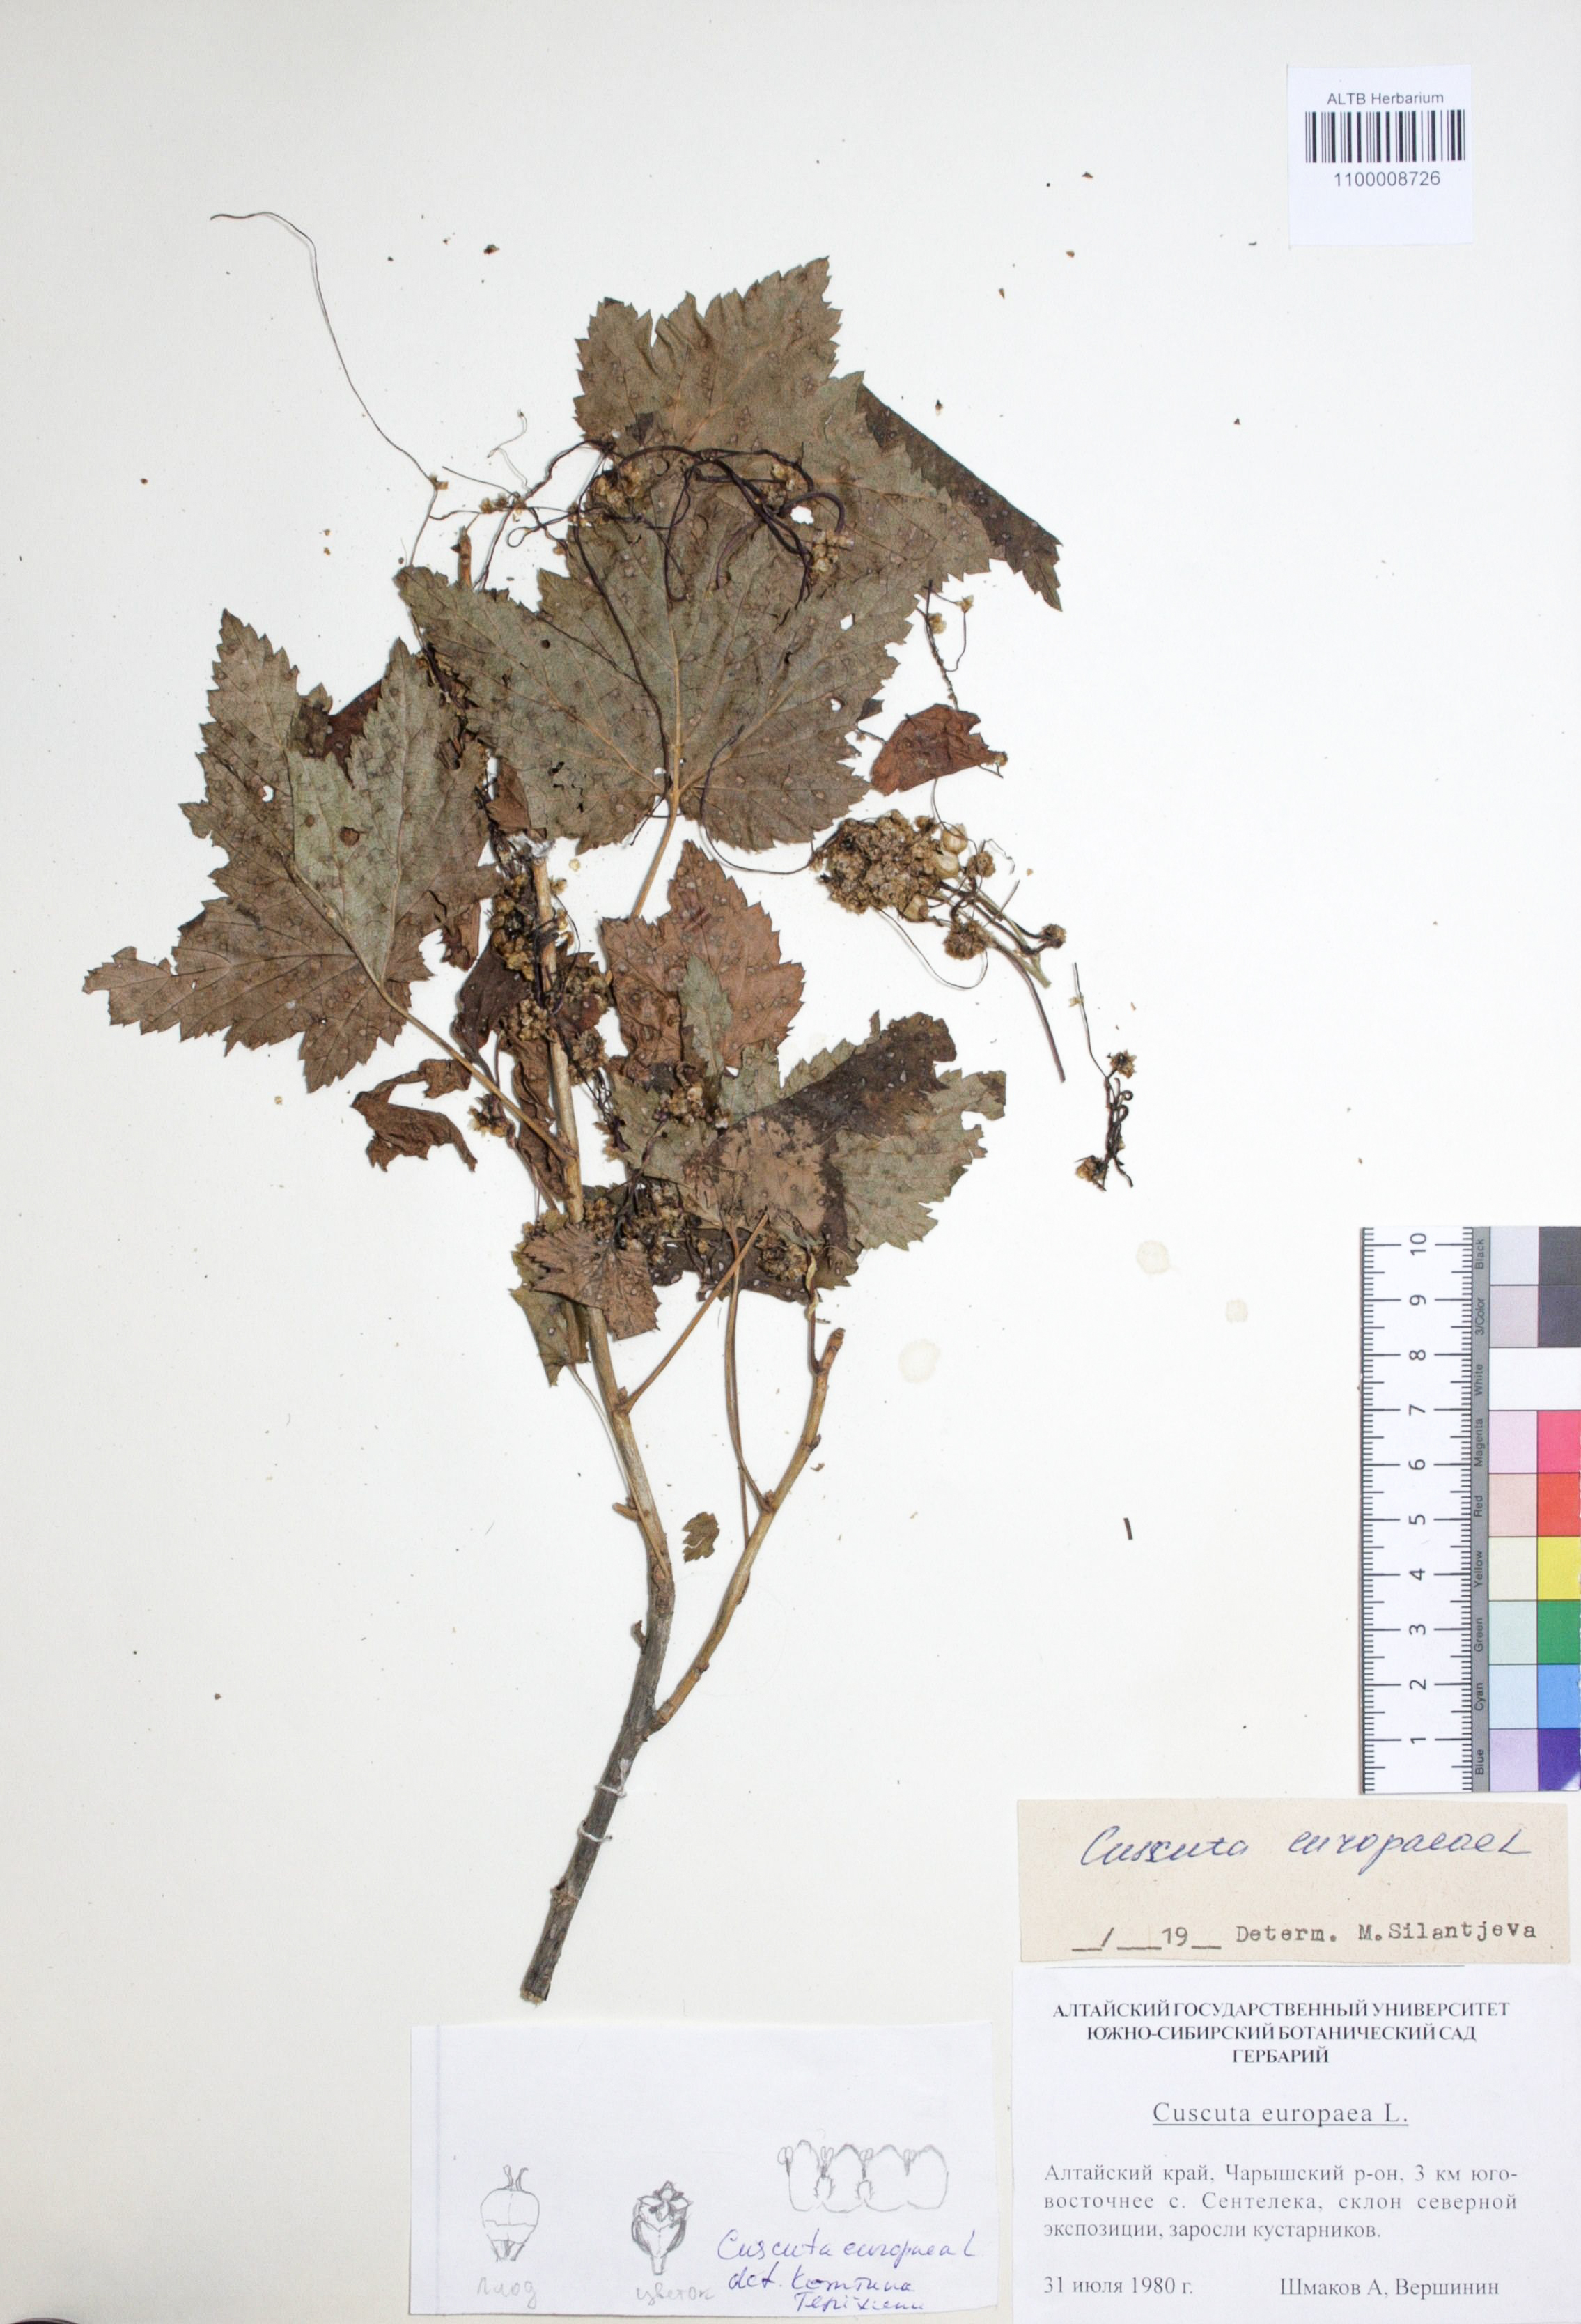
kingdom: Plantae
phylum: Tracheophyta
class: Magnoliopsida
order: Solanales
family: Convolvulaceae
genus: Cuscuta
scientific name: Cuscuta europaea
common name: Greater dodder
